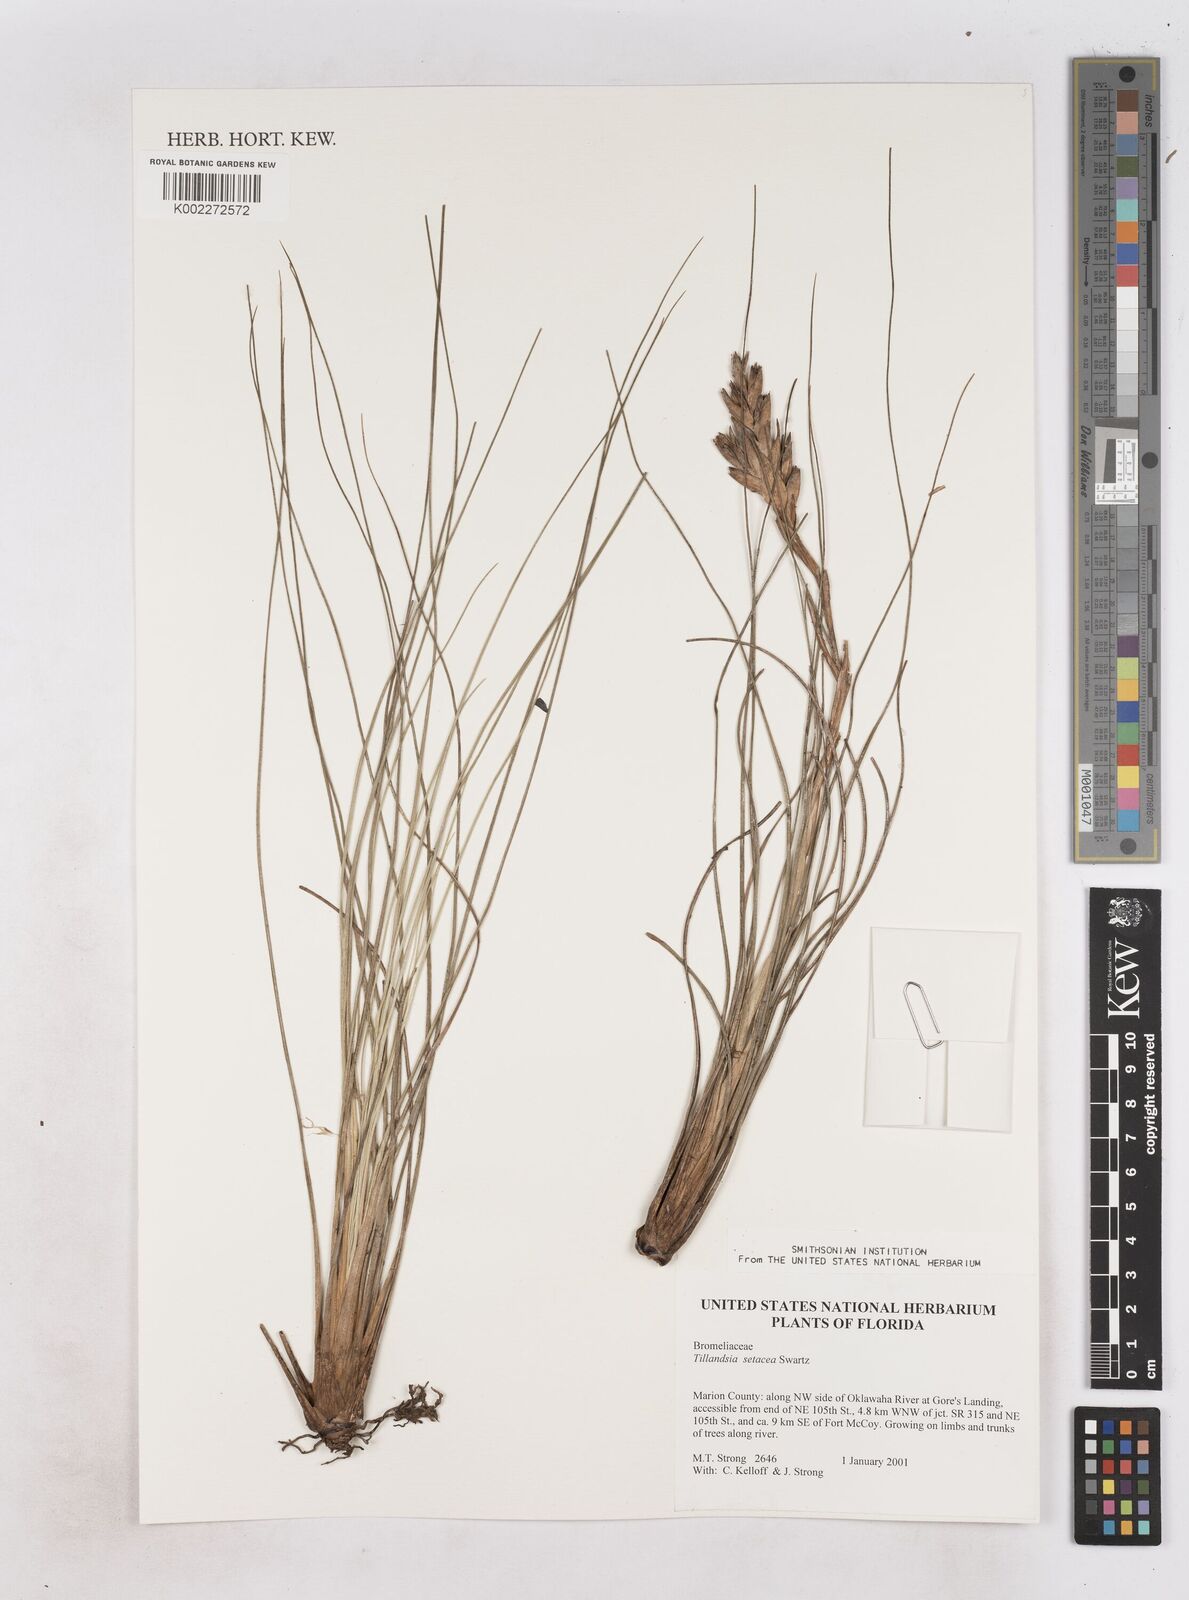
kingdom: Plantae
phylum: Tracheophyta
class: Liliopsida
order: Poales
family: Bromeliaceae
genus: Tillandsia
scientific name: Tillandsia
